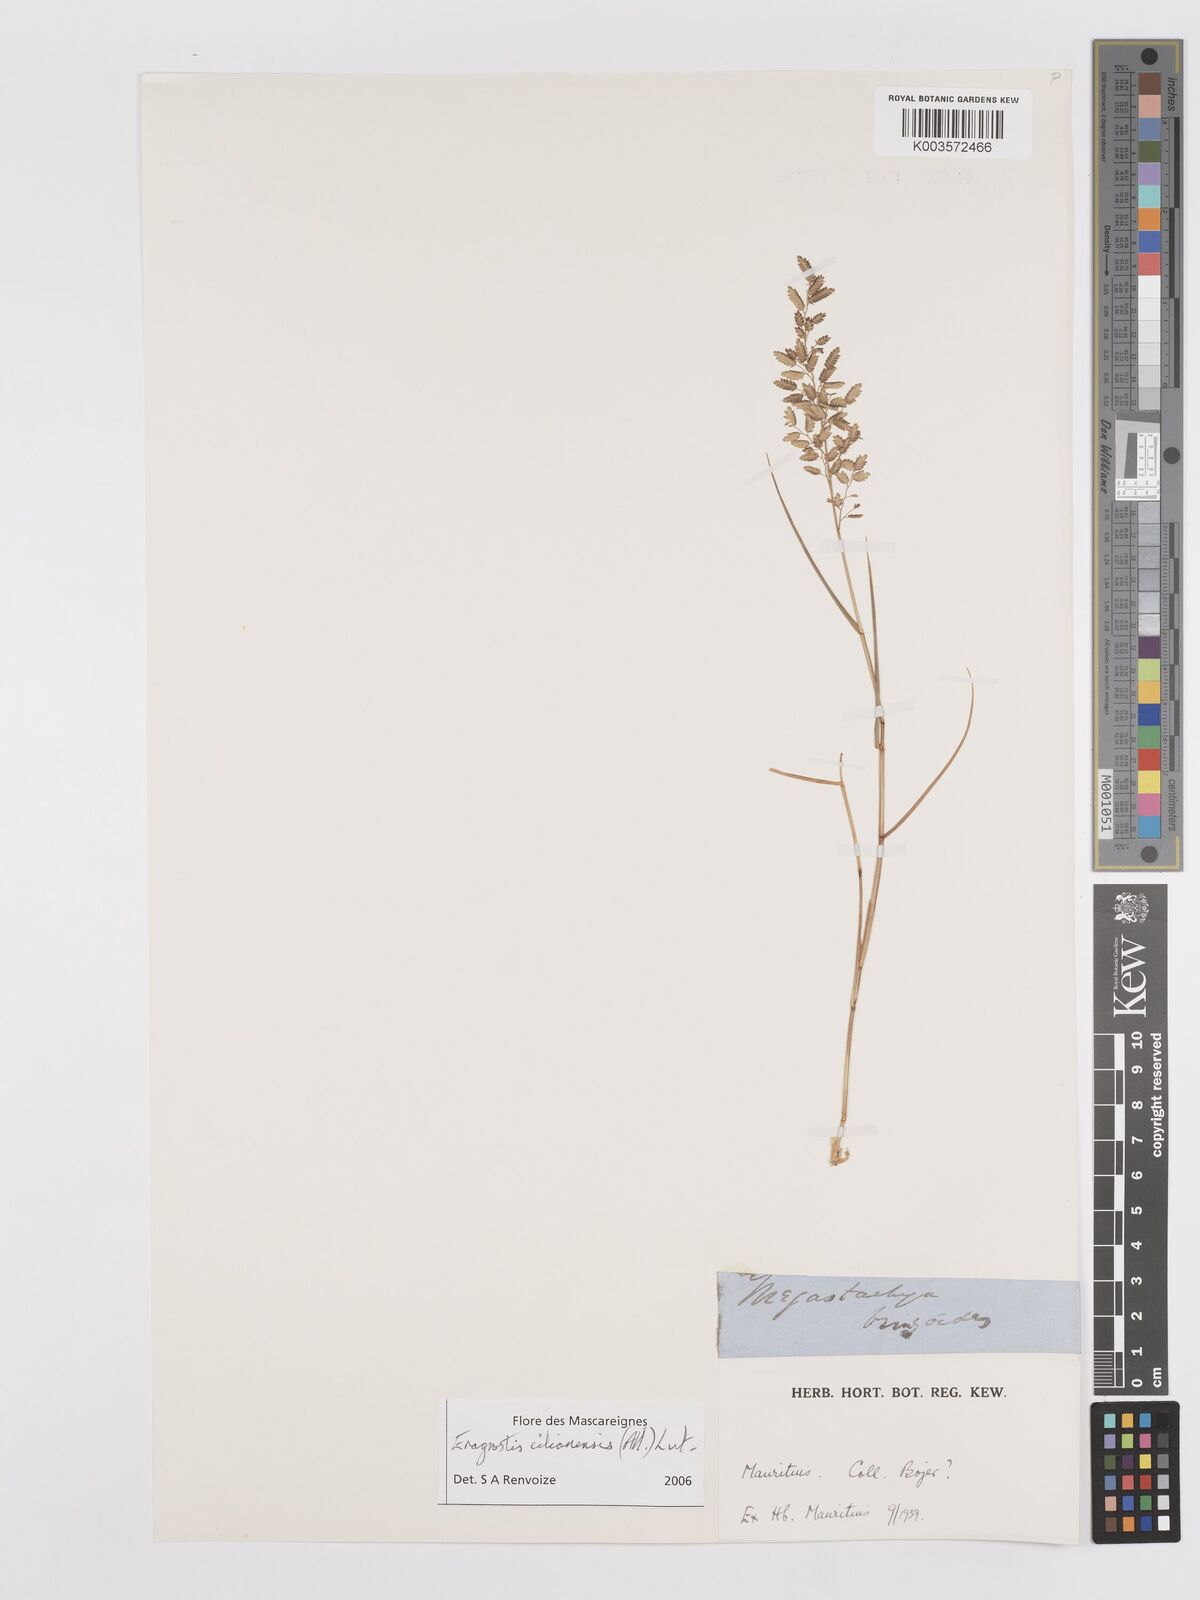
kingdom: Plantae
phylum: Tracheophyta
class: Liliopsida
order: Poales
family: Poaceae
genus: Eragrostis
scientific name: Eragrostis cilianensis
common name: Stinkgrass
